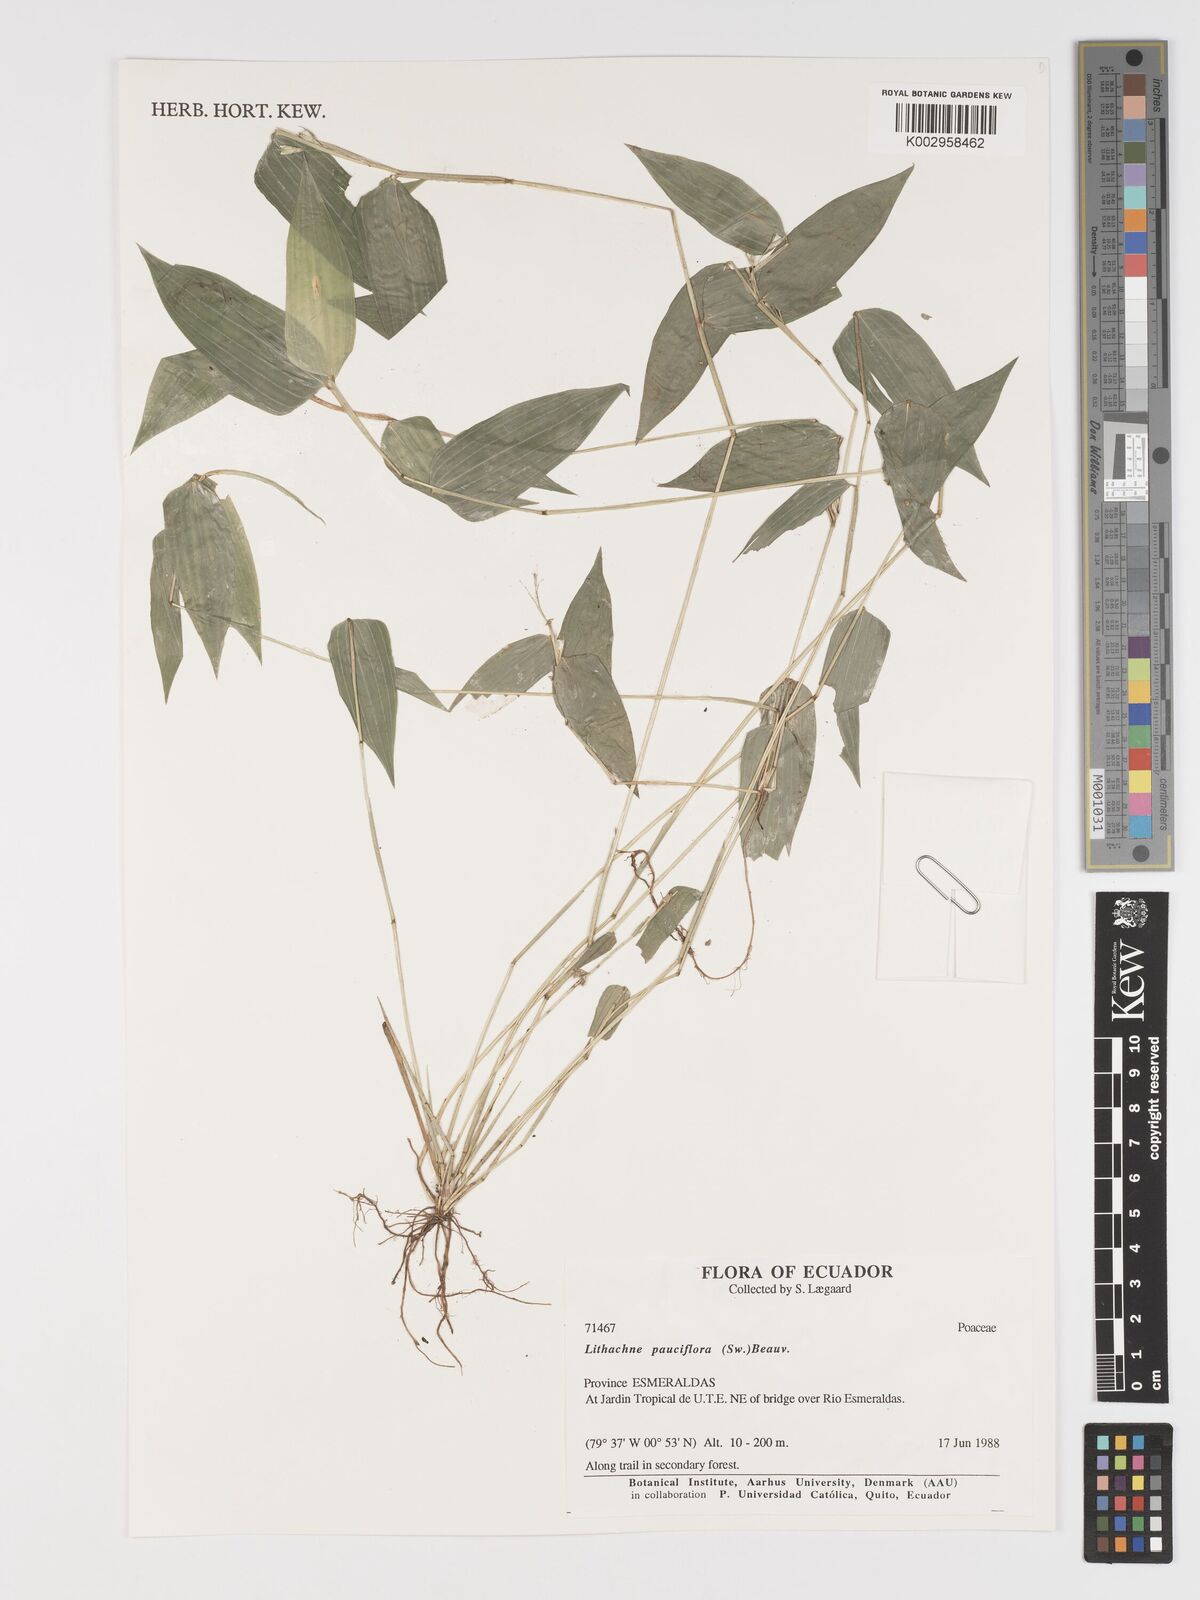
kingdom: Plantae
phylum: Tracheophyta
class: Liliopsida
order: Poales
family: Poaceae
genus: Lithachne
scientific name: Lithachne pauciflora
